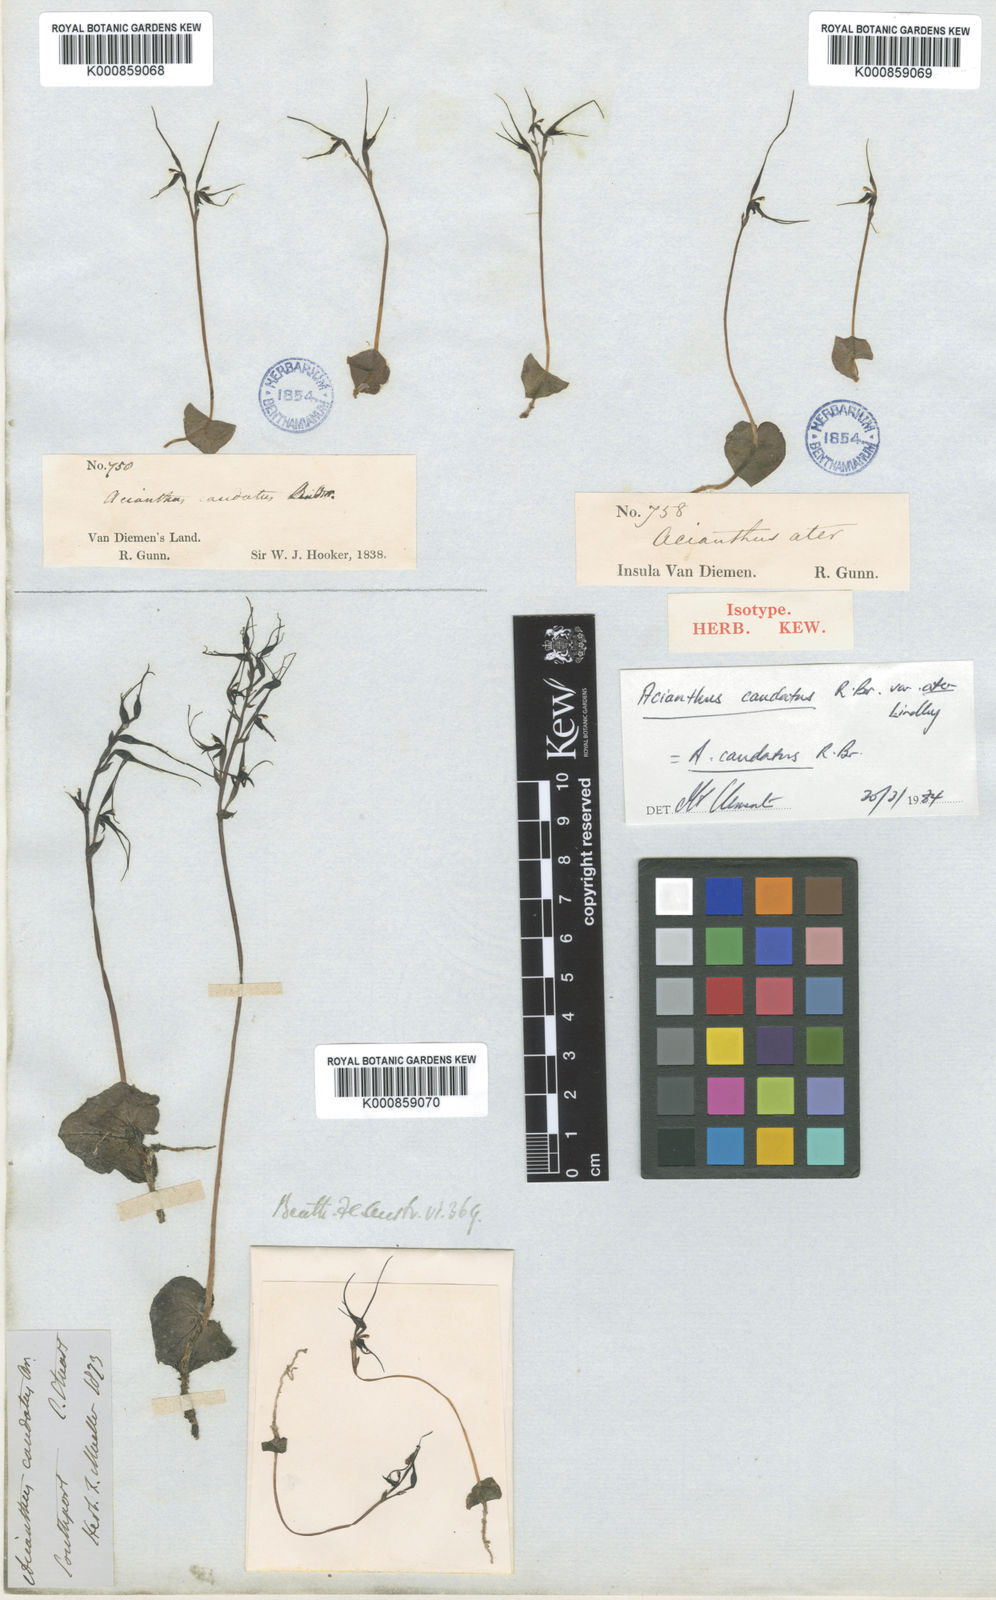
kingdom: Plantae
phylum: Tracheophyta
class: Liliopsida
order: Asparagales
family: Orchidaceae
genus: Acianthus
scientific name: Acianthus caudatus
